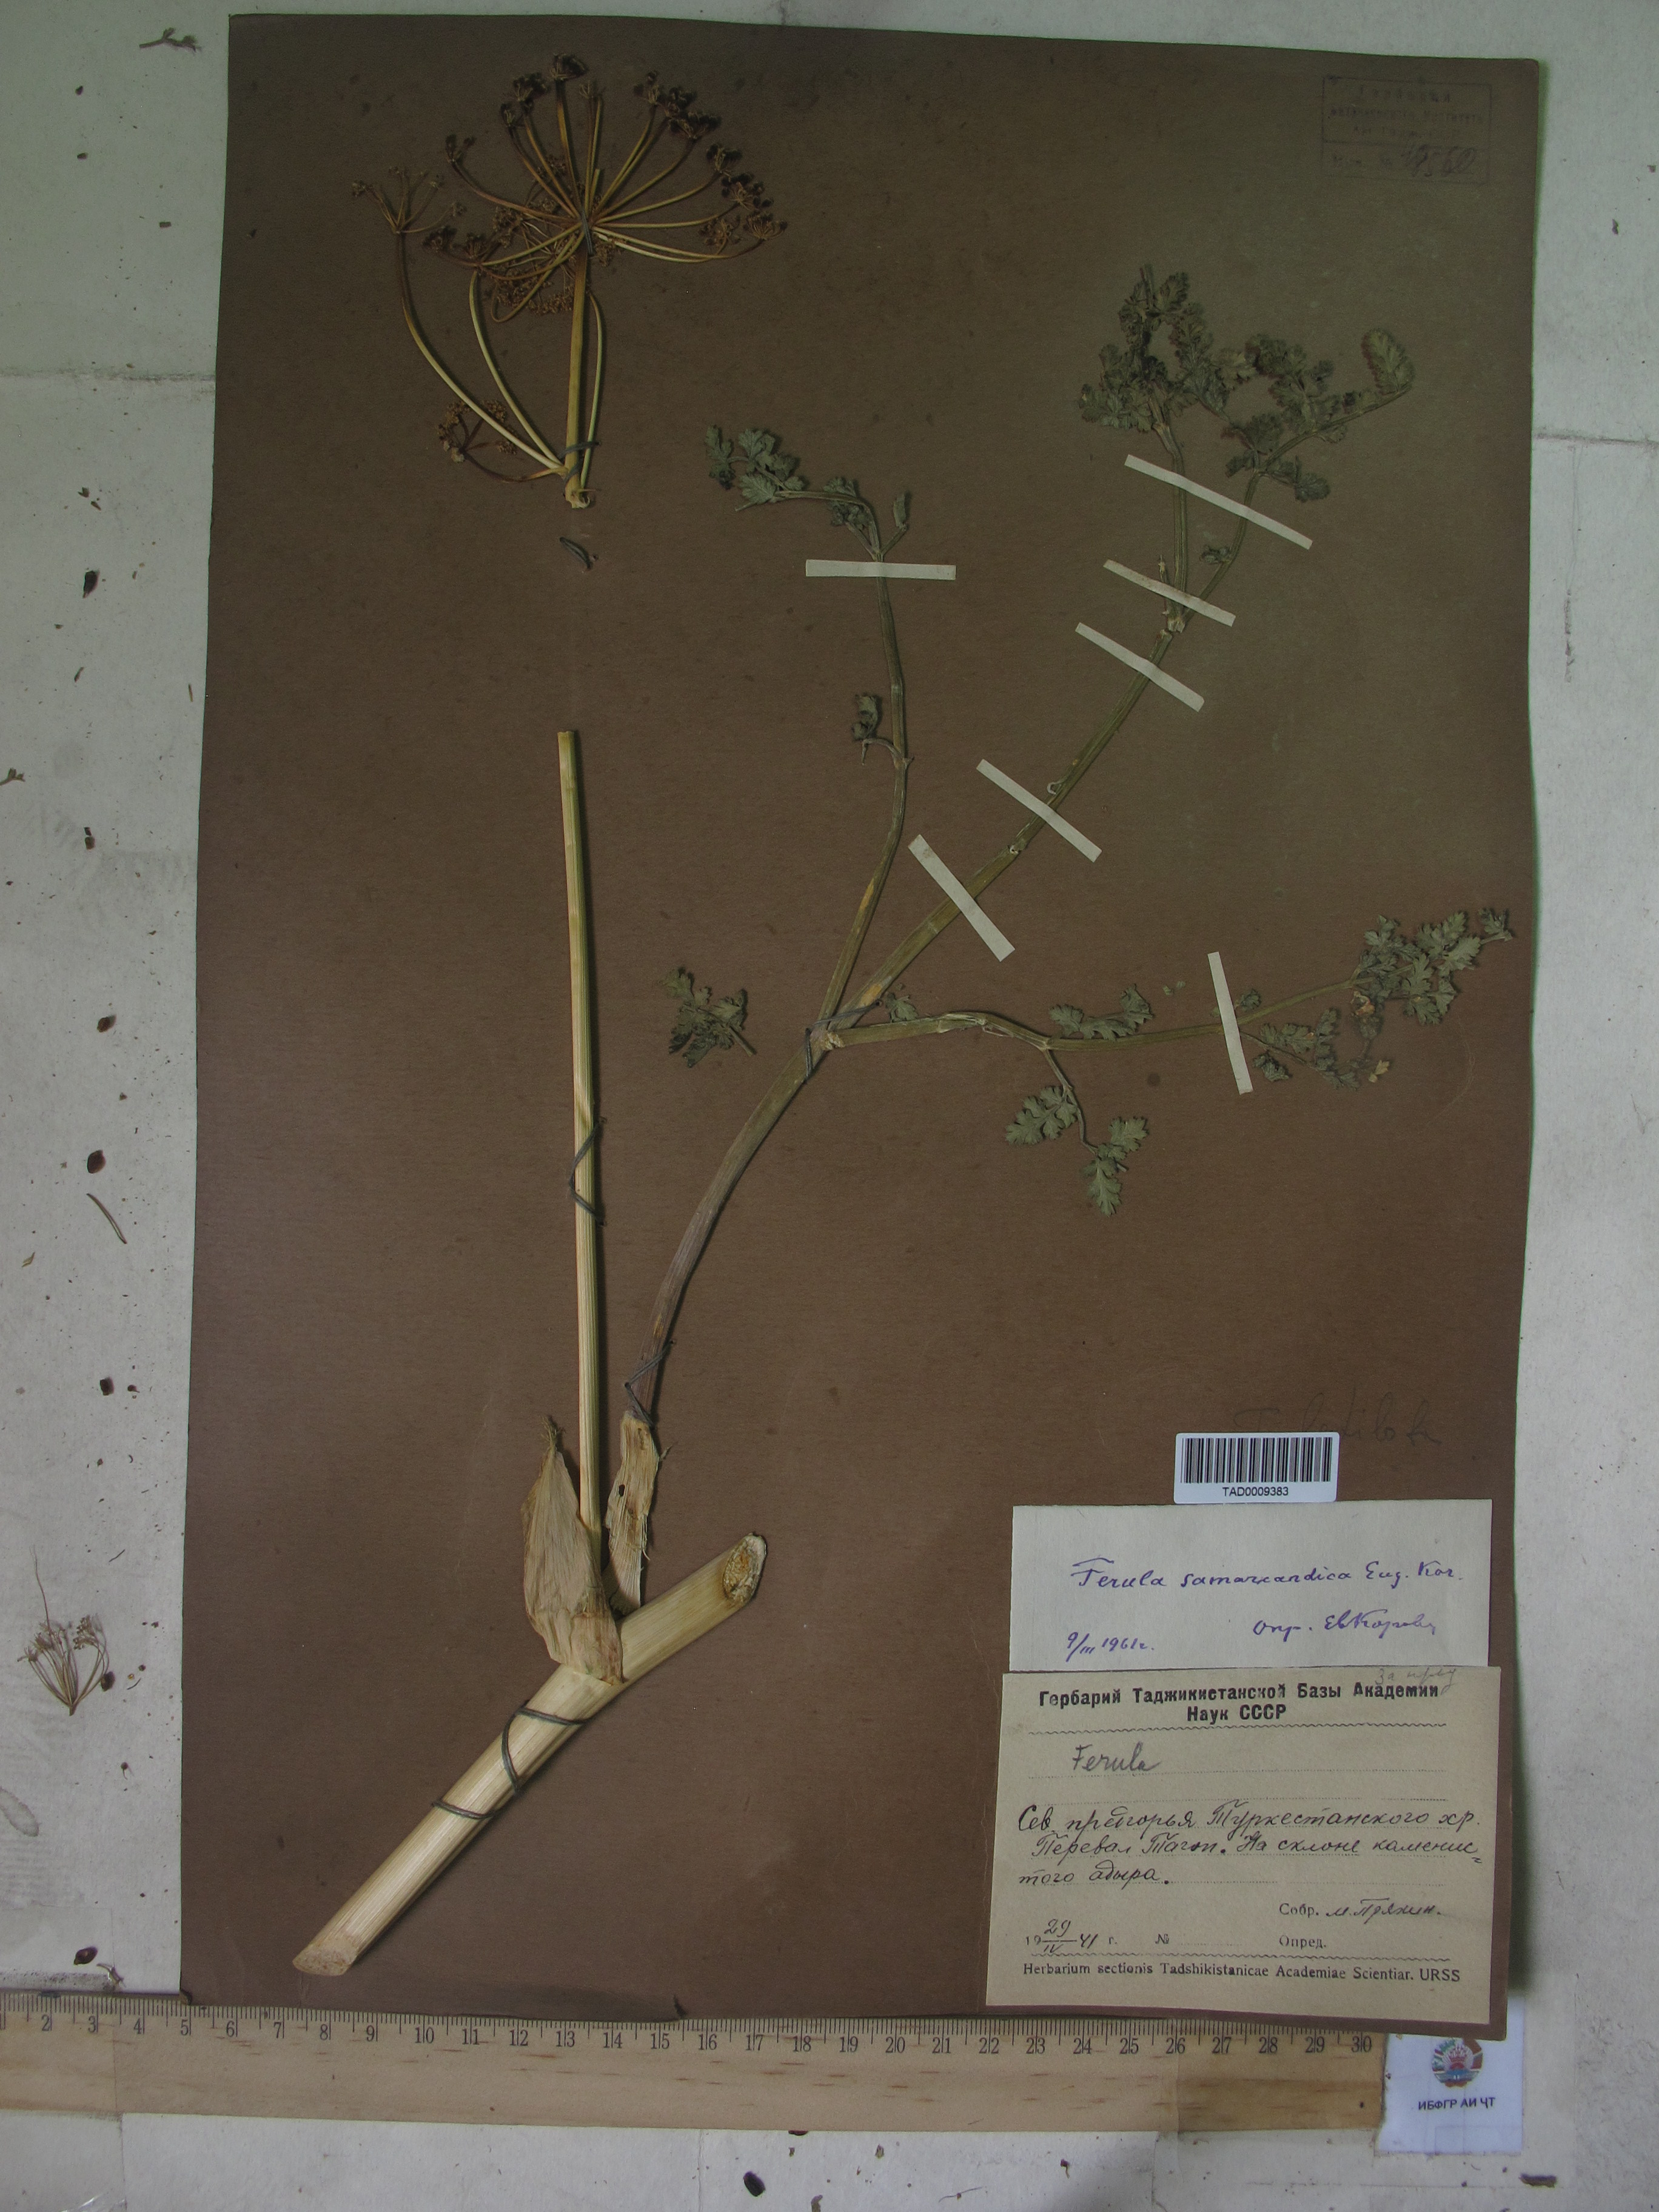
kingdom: Plantae
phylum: Tracheophyta
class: Magnoliopsida
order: Apiales
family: Apiaceae
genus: Ferula
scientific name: Ferula samarkandica
